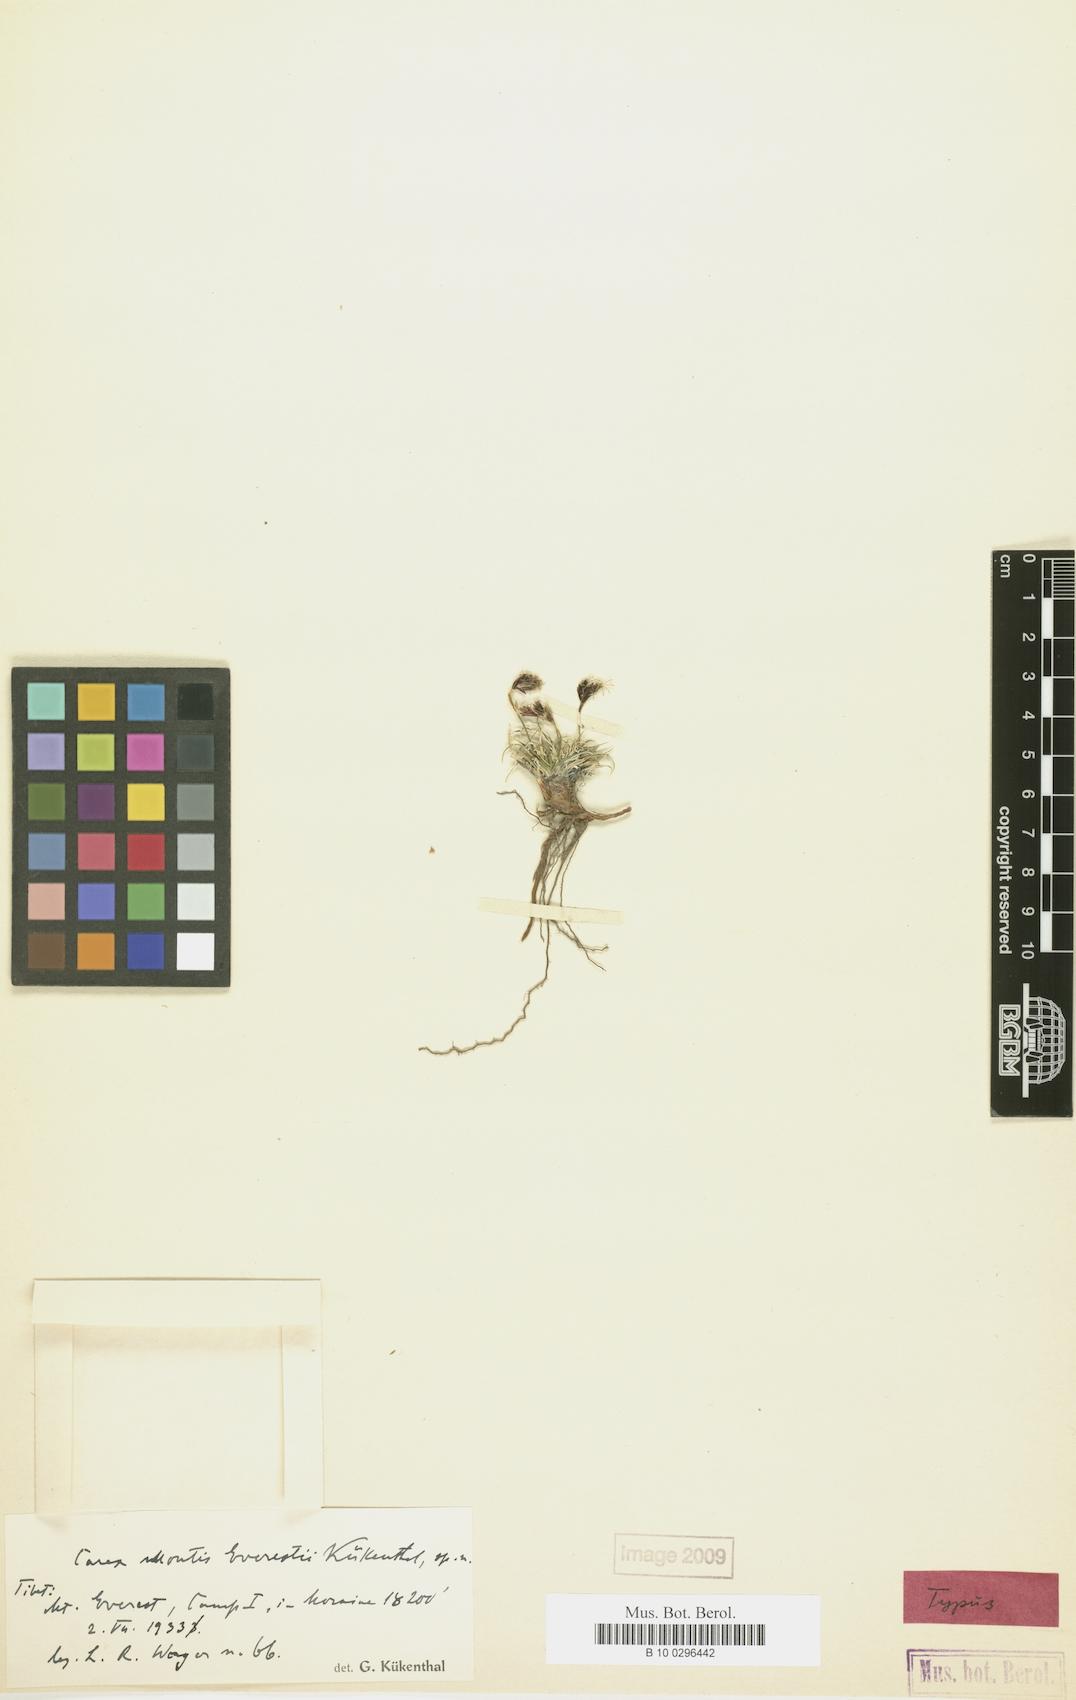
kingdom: Plantae
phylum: Tracheophyta
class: Liliopsida
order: Poales
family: Cyperaceae
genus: Carex
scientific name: Carex montis-everestii
